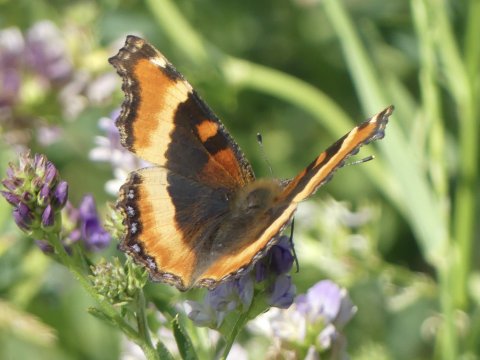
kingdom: Animalia
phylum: Arthropoda
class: Insecta
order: Lepidoptera
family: Nymphalidae
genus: Aglais
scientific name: Aglais milberti
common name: Milbert's Tortoiseshell
